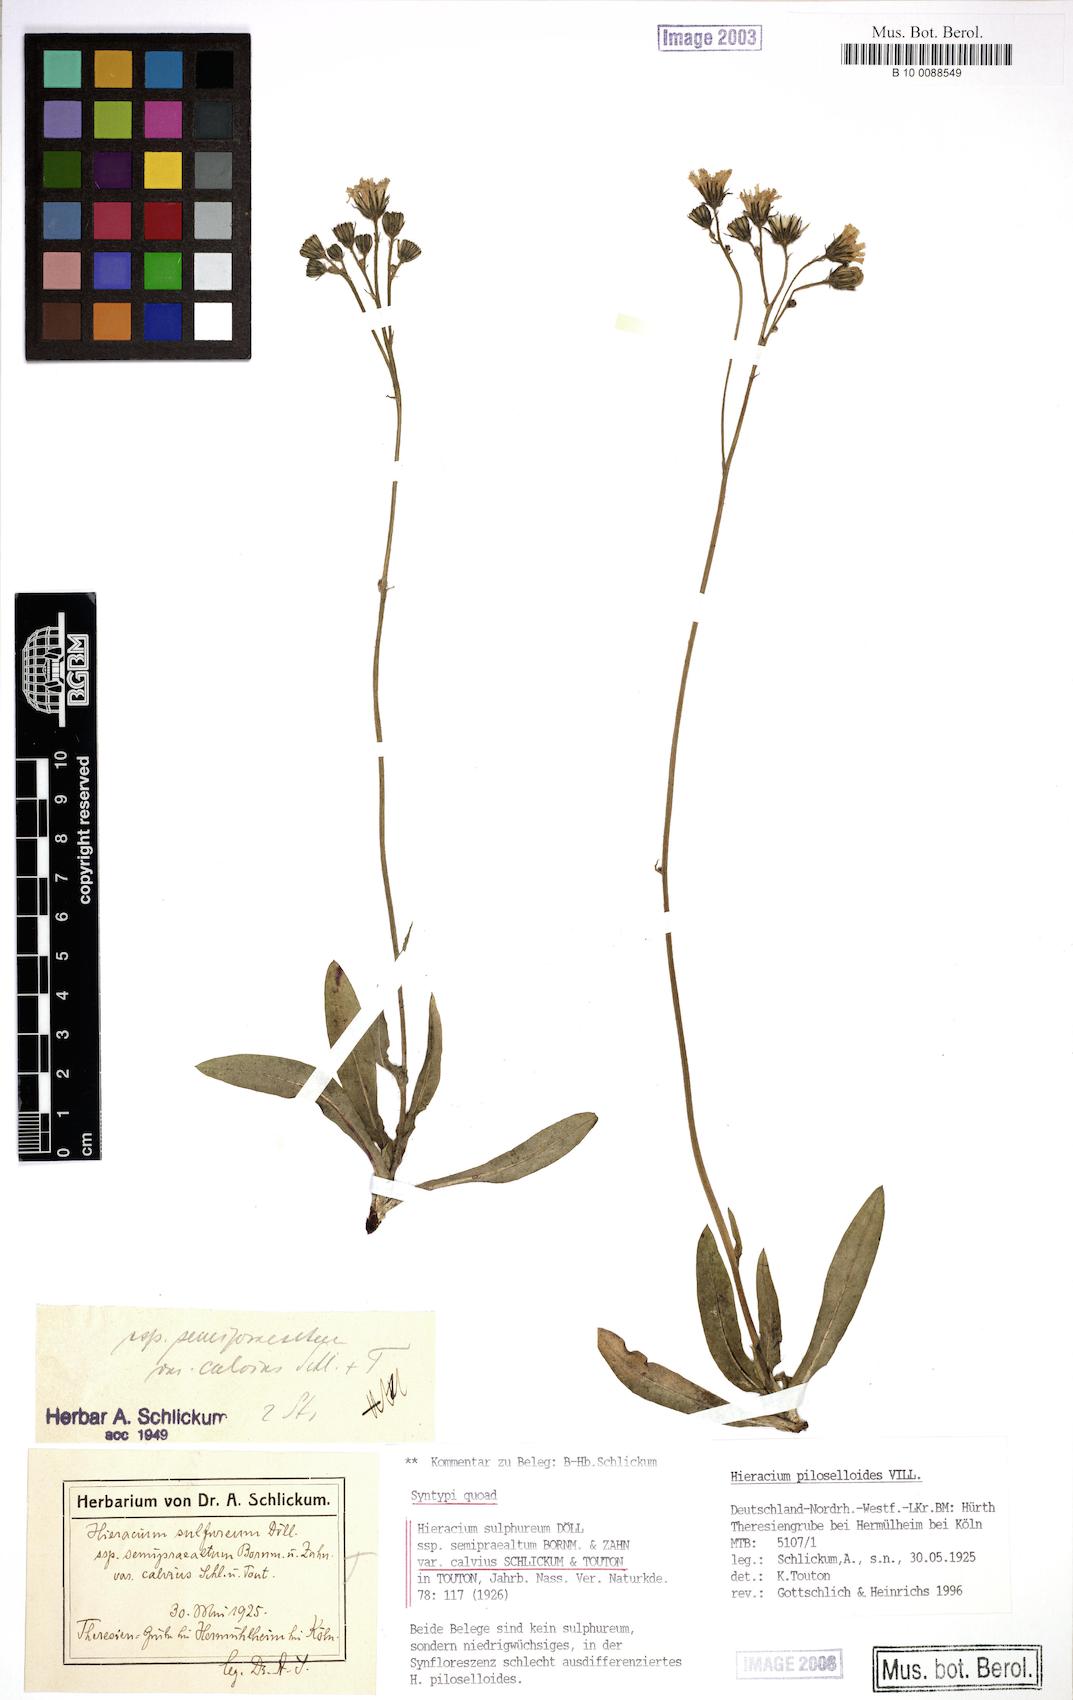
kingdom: Plantae
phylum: Tracheophyta
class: Magnoliopsida
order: Asterales
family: Asteraceae
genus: Pilosella
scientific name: Pilosella sulphurea
